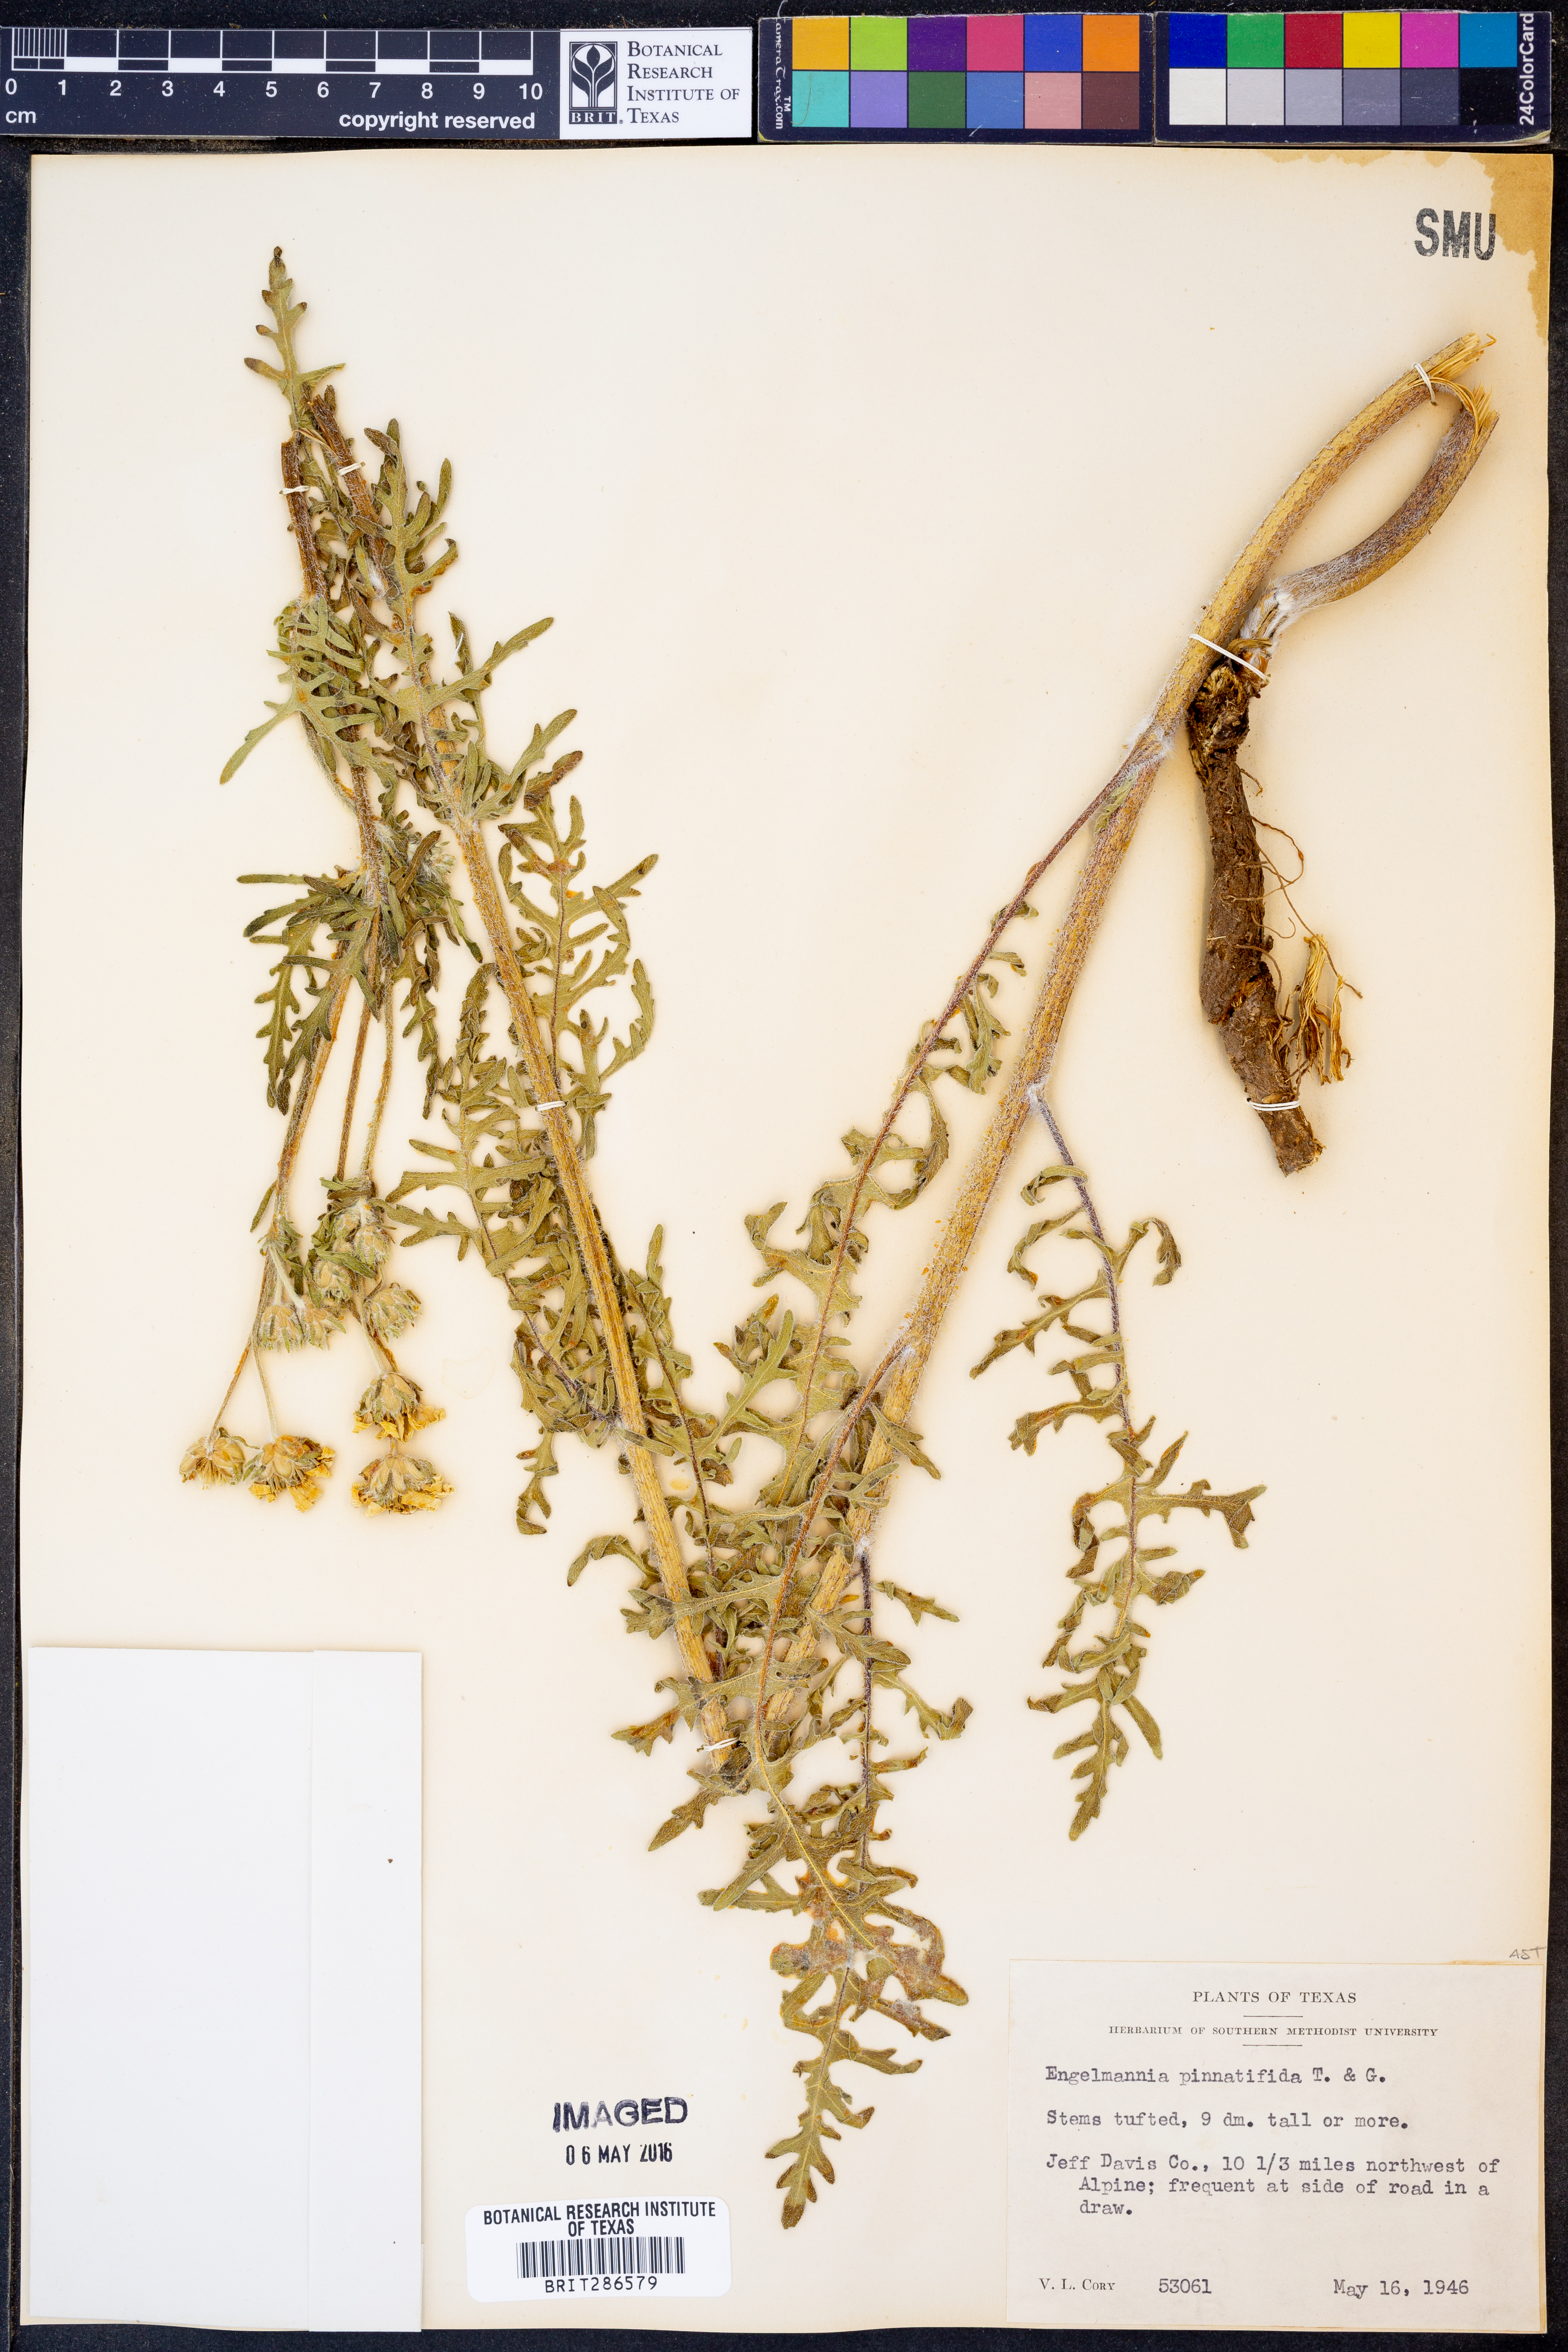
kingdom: Plantae
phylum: Tracheophyta
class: Magnoliopsida
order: Asterales
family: Asteraceae
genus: Engelmannia
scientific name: Engelmannia peristenia
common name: Engelmann's daisy
